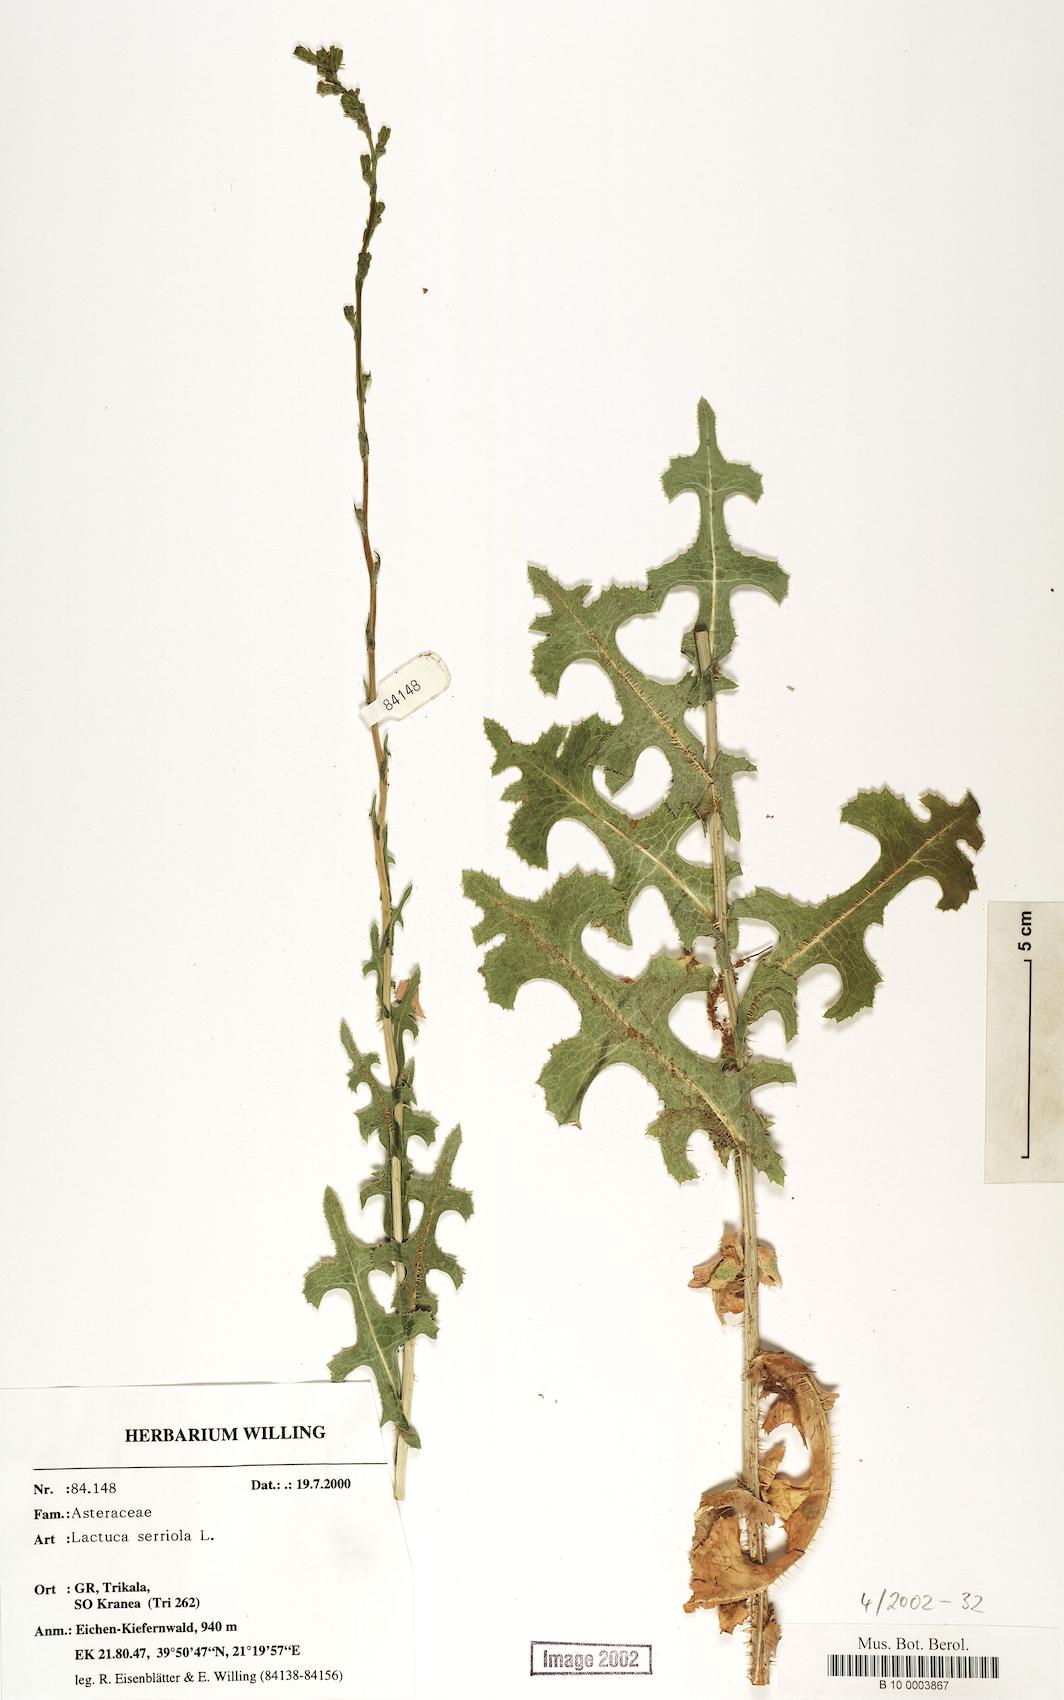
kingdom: Plantae
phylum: Tracheophyta
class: Magnoliopsida
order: Asterales
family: Asteraceae
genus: Lactuca
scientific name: Lactuca serriola
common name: Prickly lettuce
